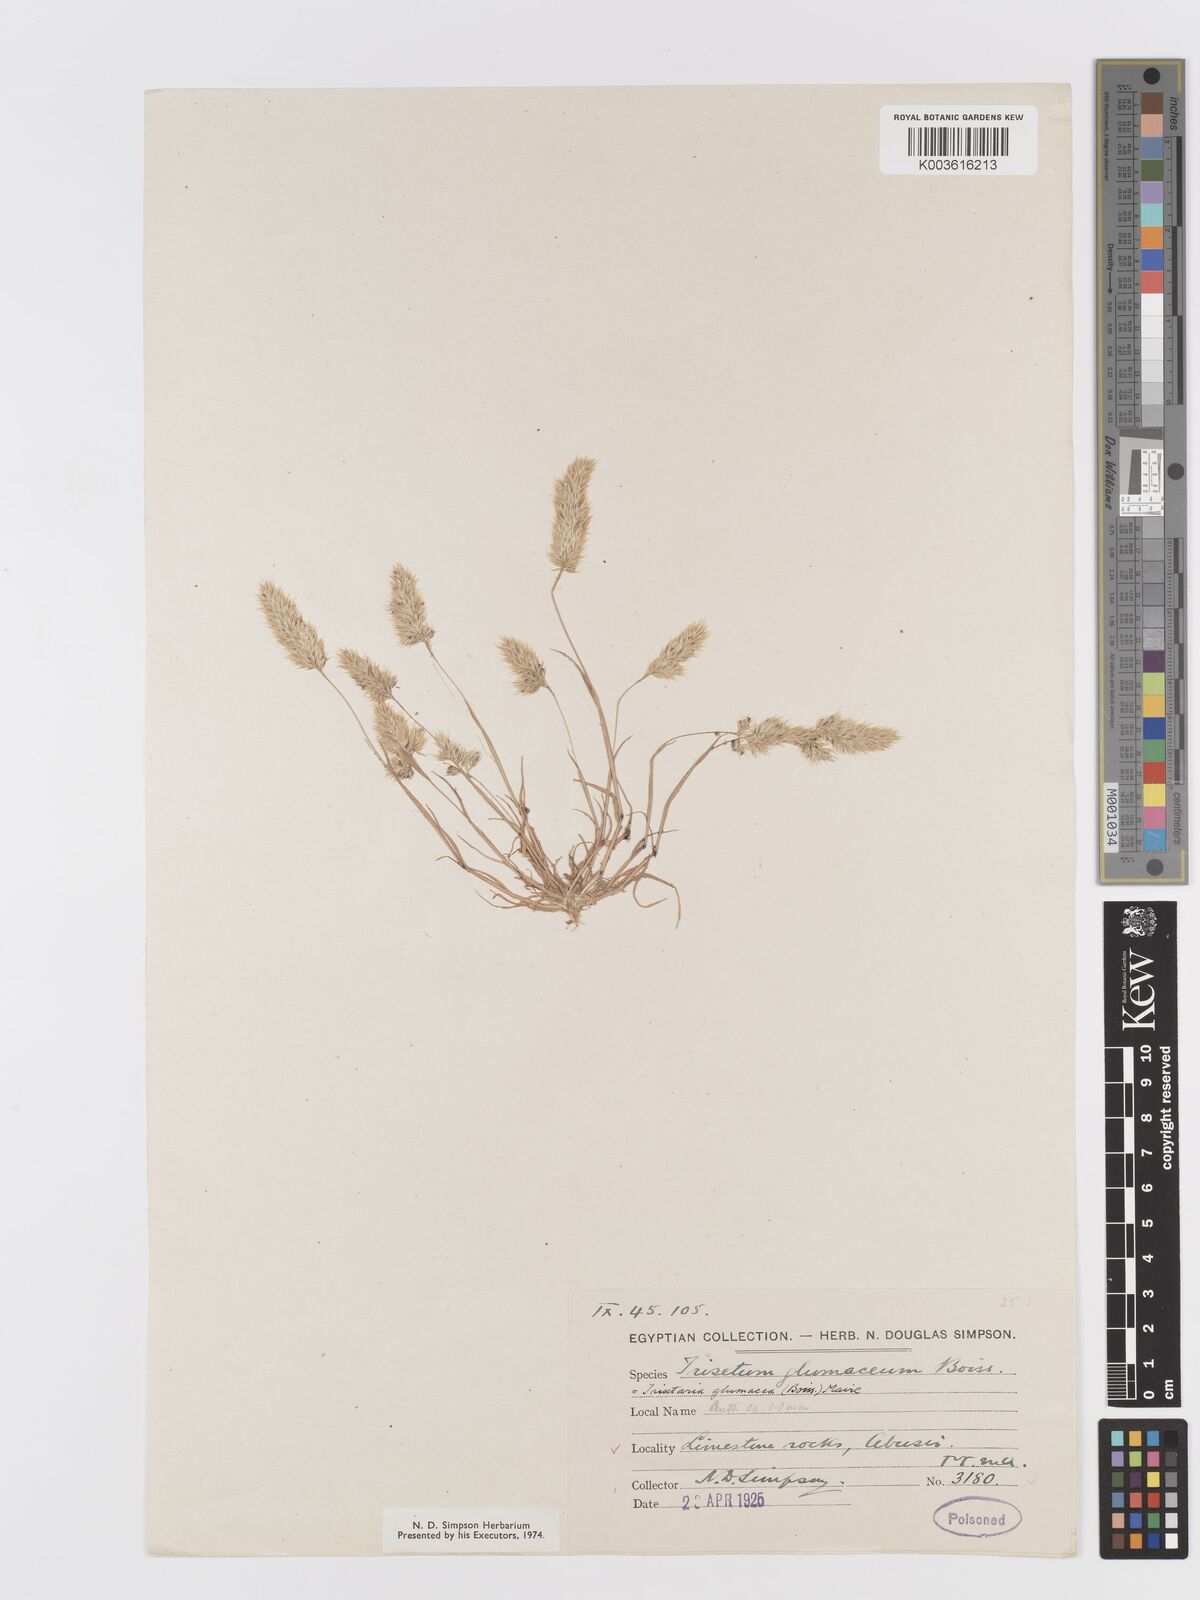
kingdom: Plantae
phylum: Tracheophyta
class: Liliopsida
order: Poales
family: Poaceae
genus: Trisetaria
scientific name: Trisetaria glumacea
